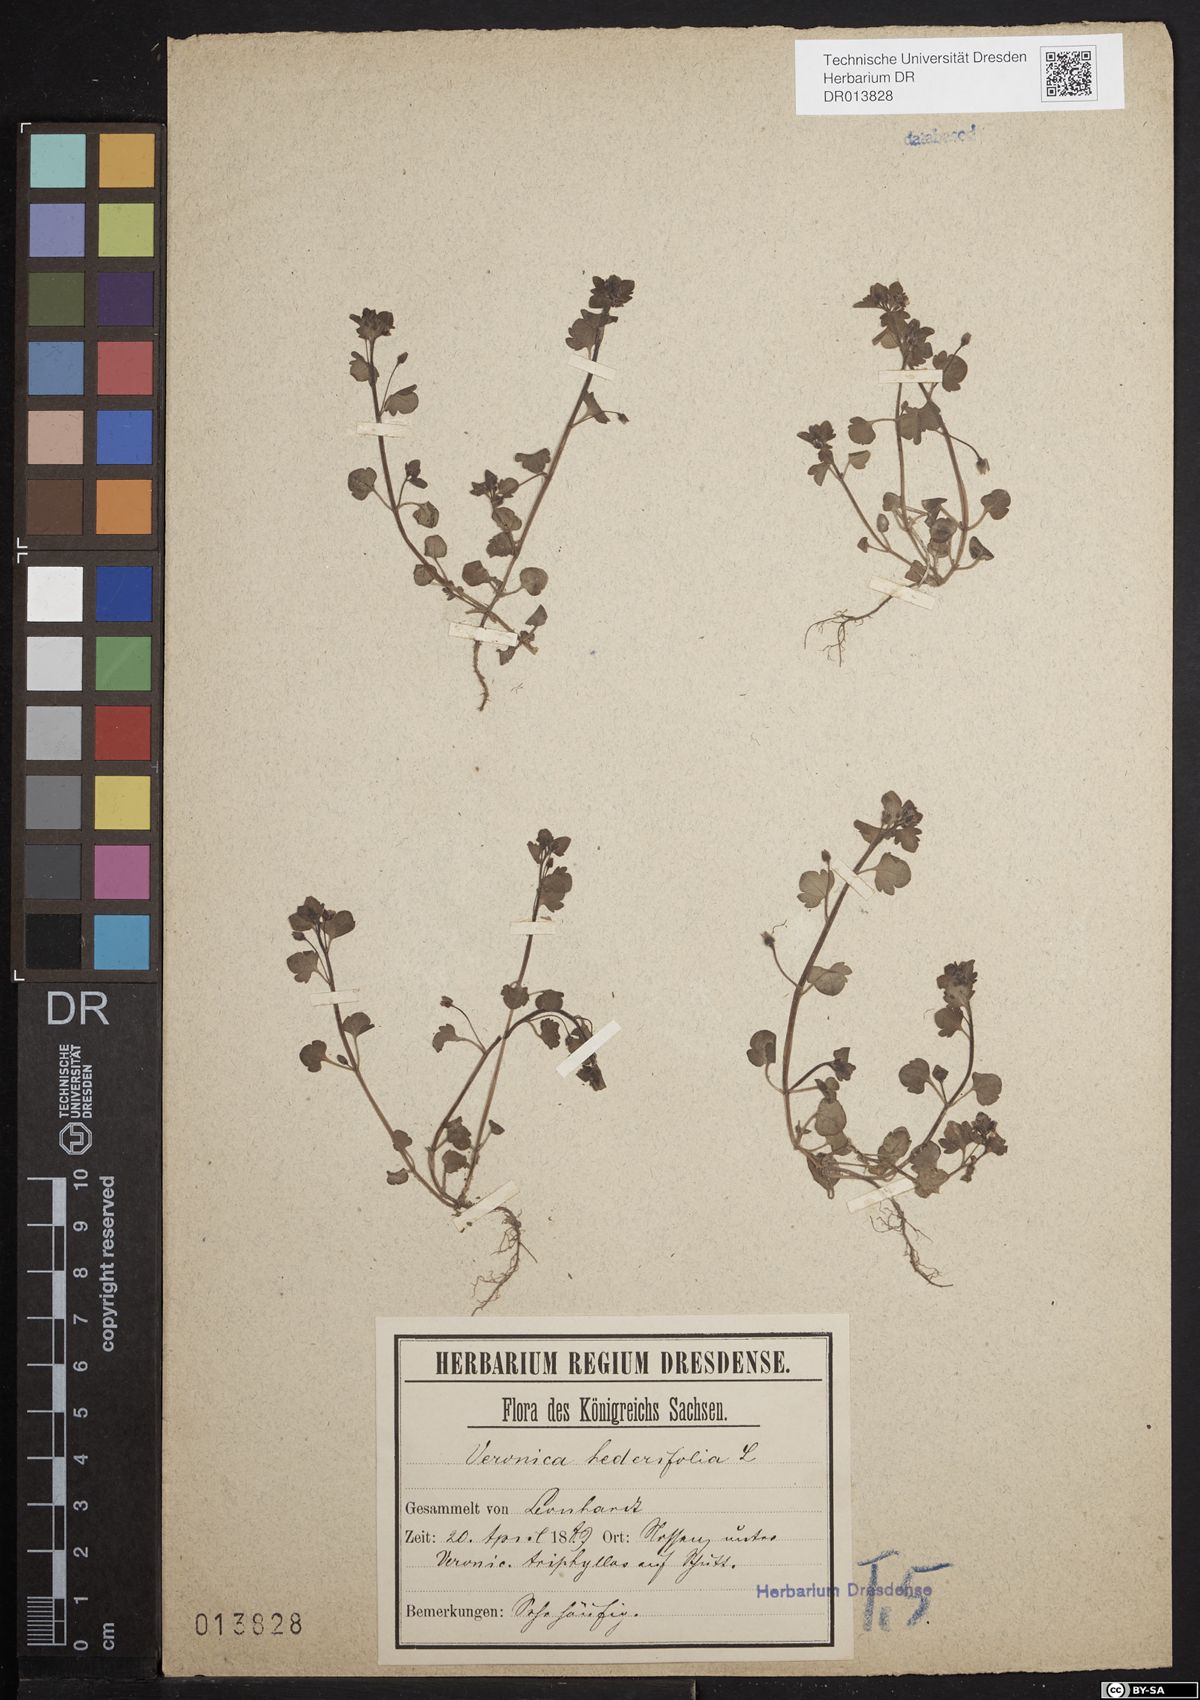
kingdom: Plantae
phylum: Tracheophyta
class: Magnoliopsida
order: Lamiales
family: Plantaginaceae
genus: Veronica
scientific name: Veronica hederifolia
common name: Ivy-leaved speedwell
